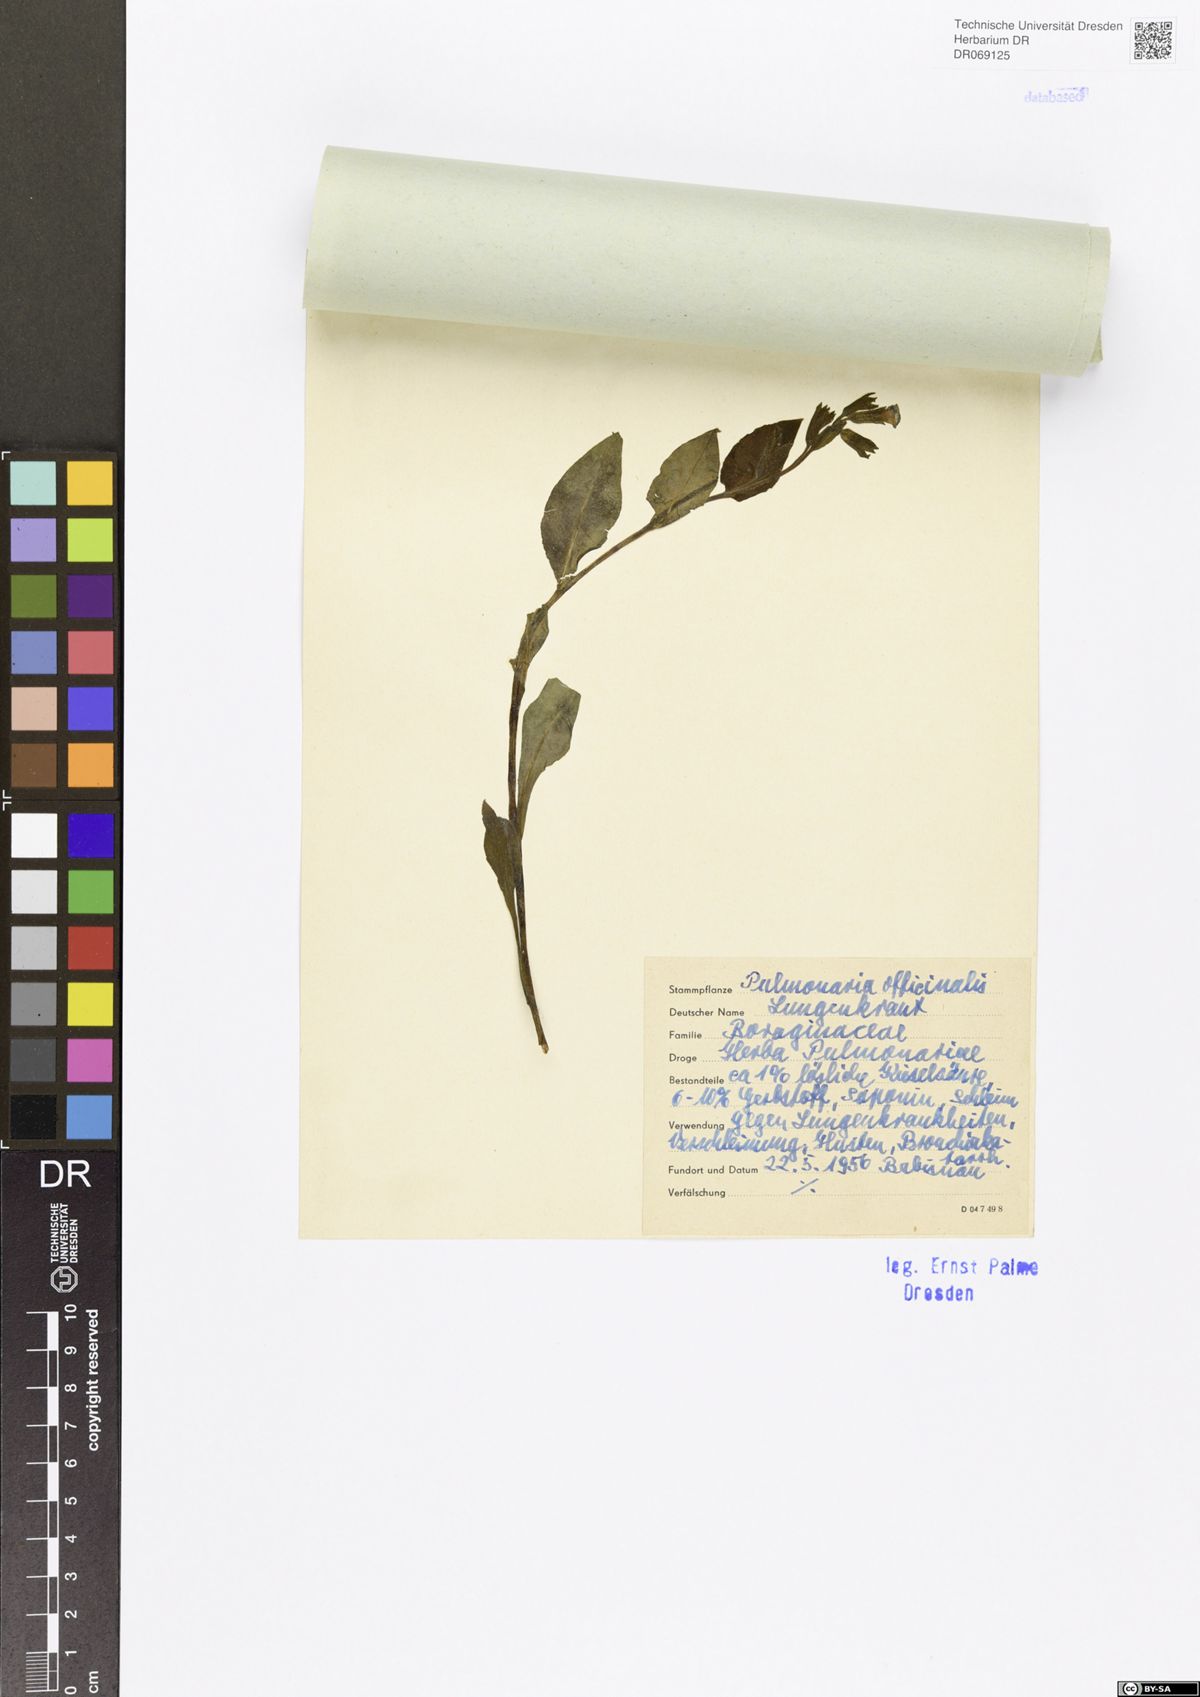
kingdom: Plantae
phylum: Tracheophyta
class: Magnoliopsida
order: Boraginales
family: Boraginaceae
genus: Pulmonaria
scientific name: Pulmonaria officinalis
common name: Lungwort
